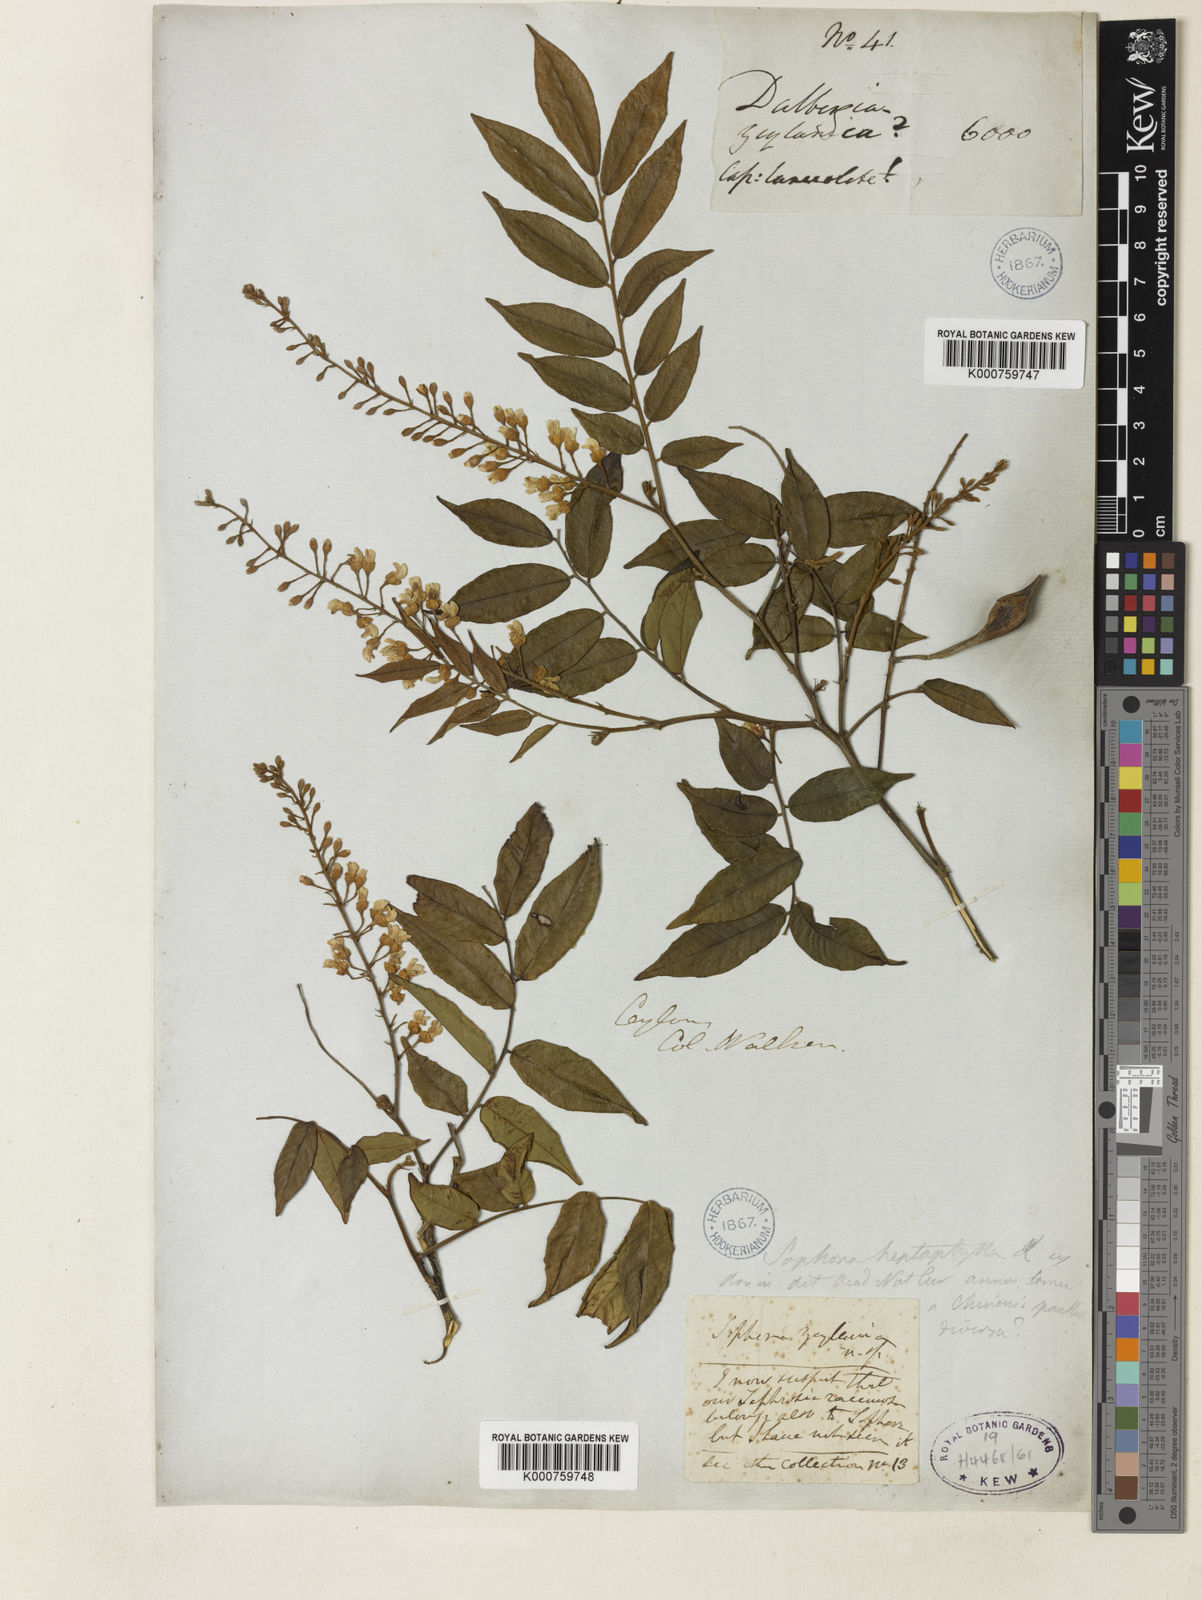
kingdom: Plantae
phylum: Tracheophyta
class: Magnoliopsida
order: Fabales
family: Fabaceae
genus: Sophora
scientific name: Sophora zeylanica
